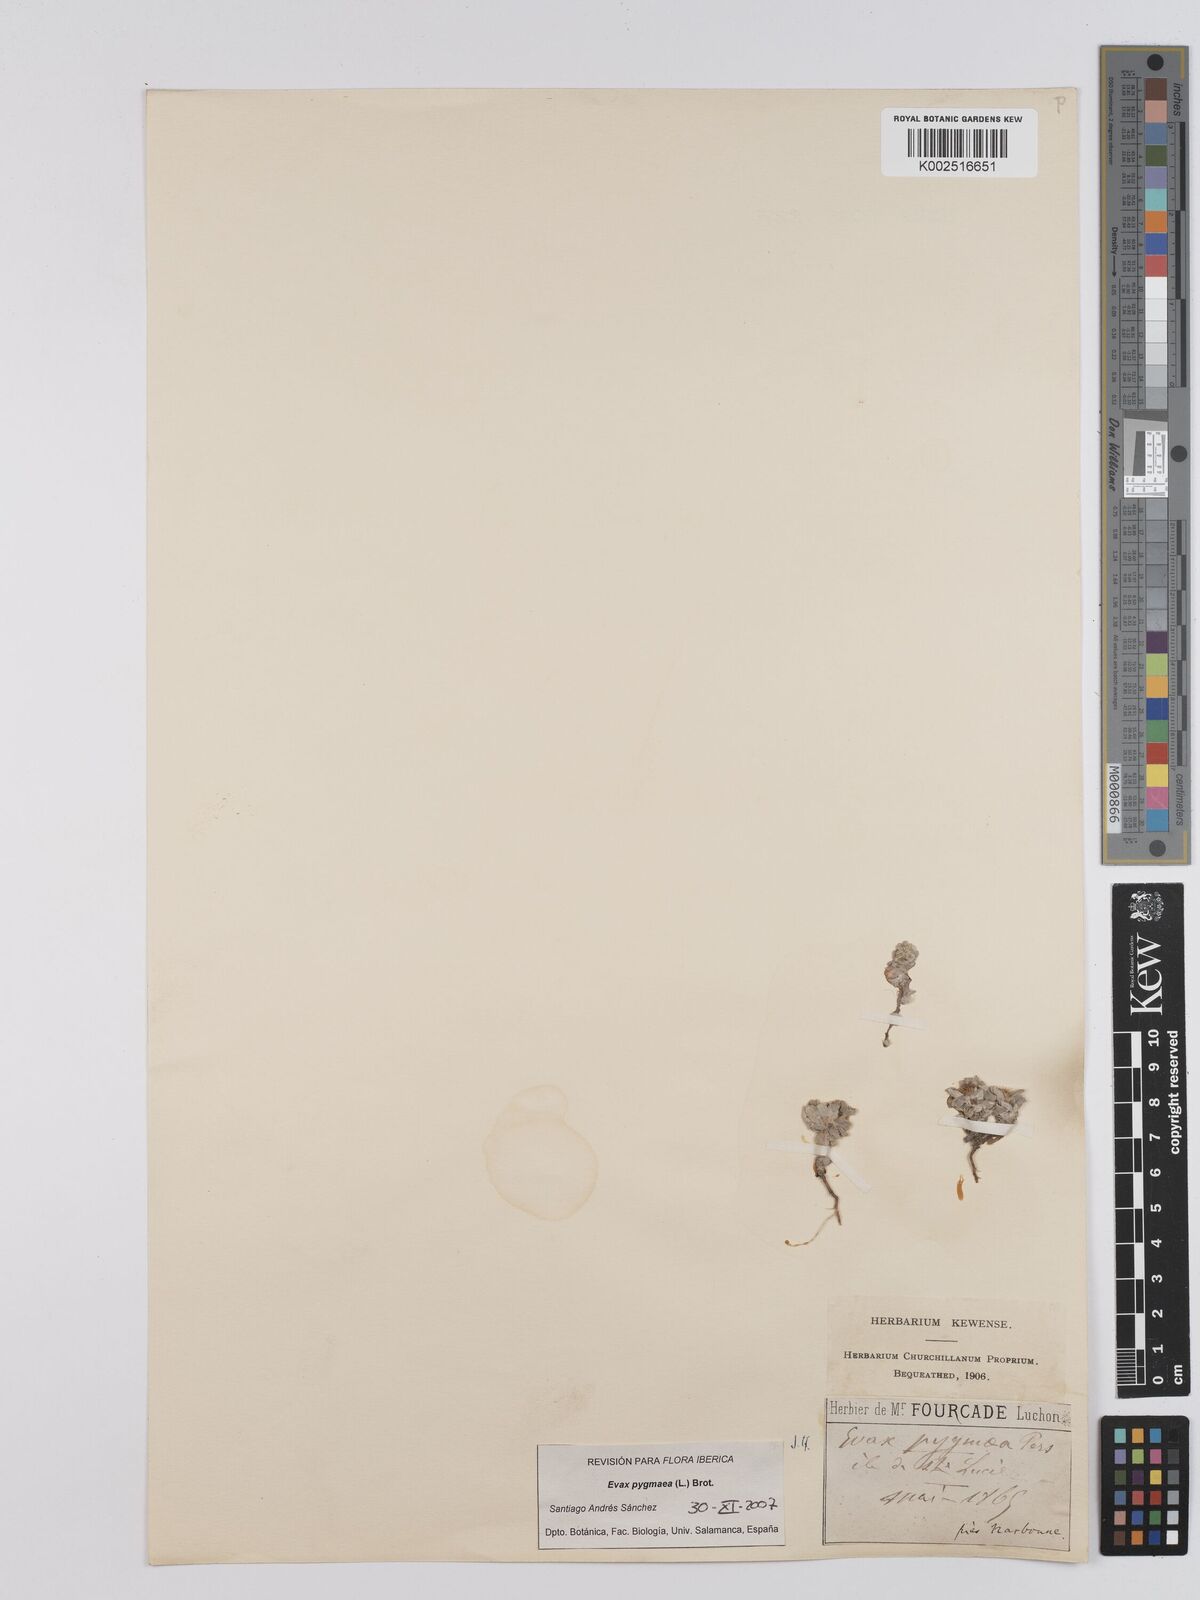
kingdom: Plantae
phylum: Tracheophyta
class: Magnoliopsida
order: Asterales
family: Asteraceae
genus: Filago
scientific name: Filago pygmaea
